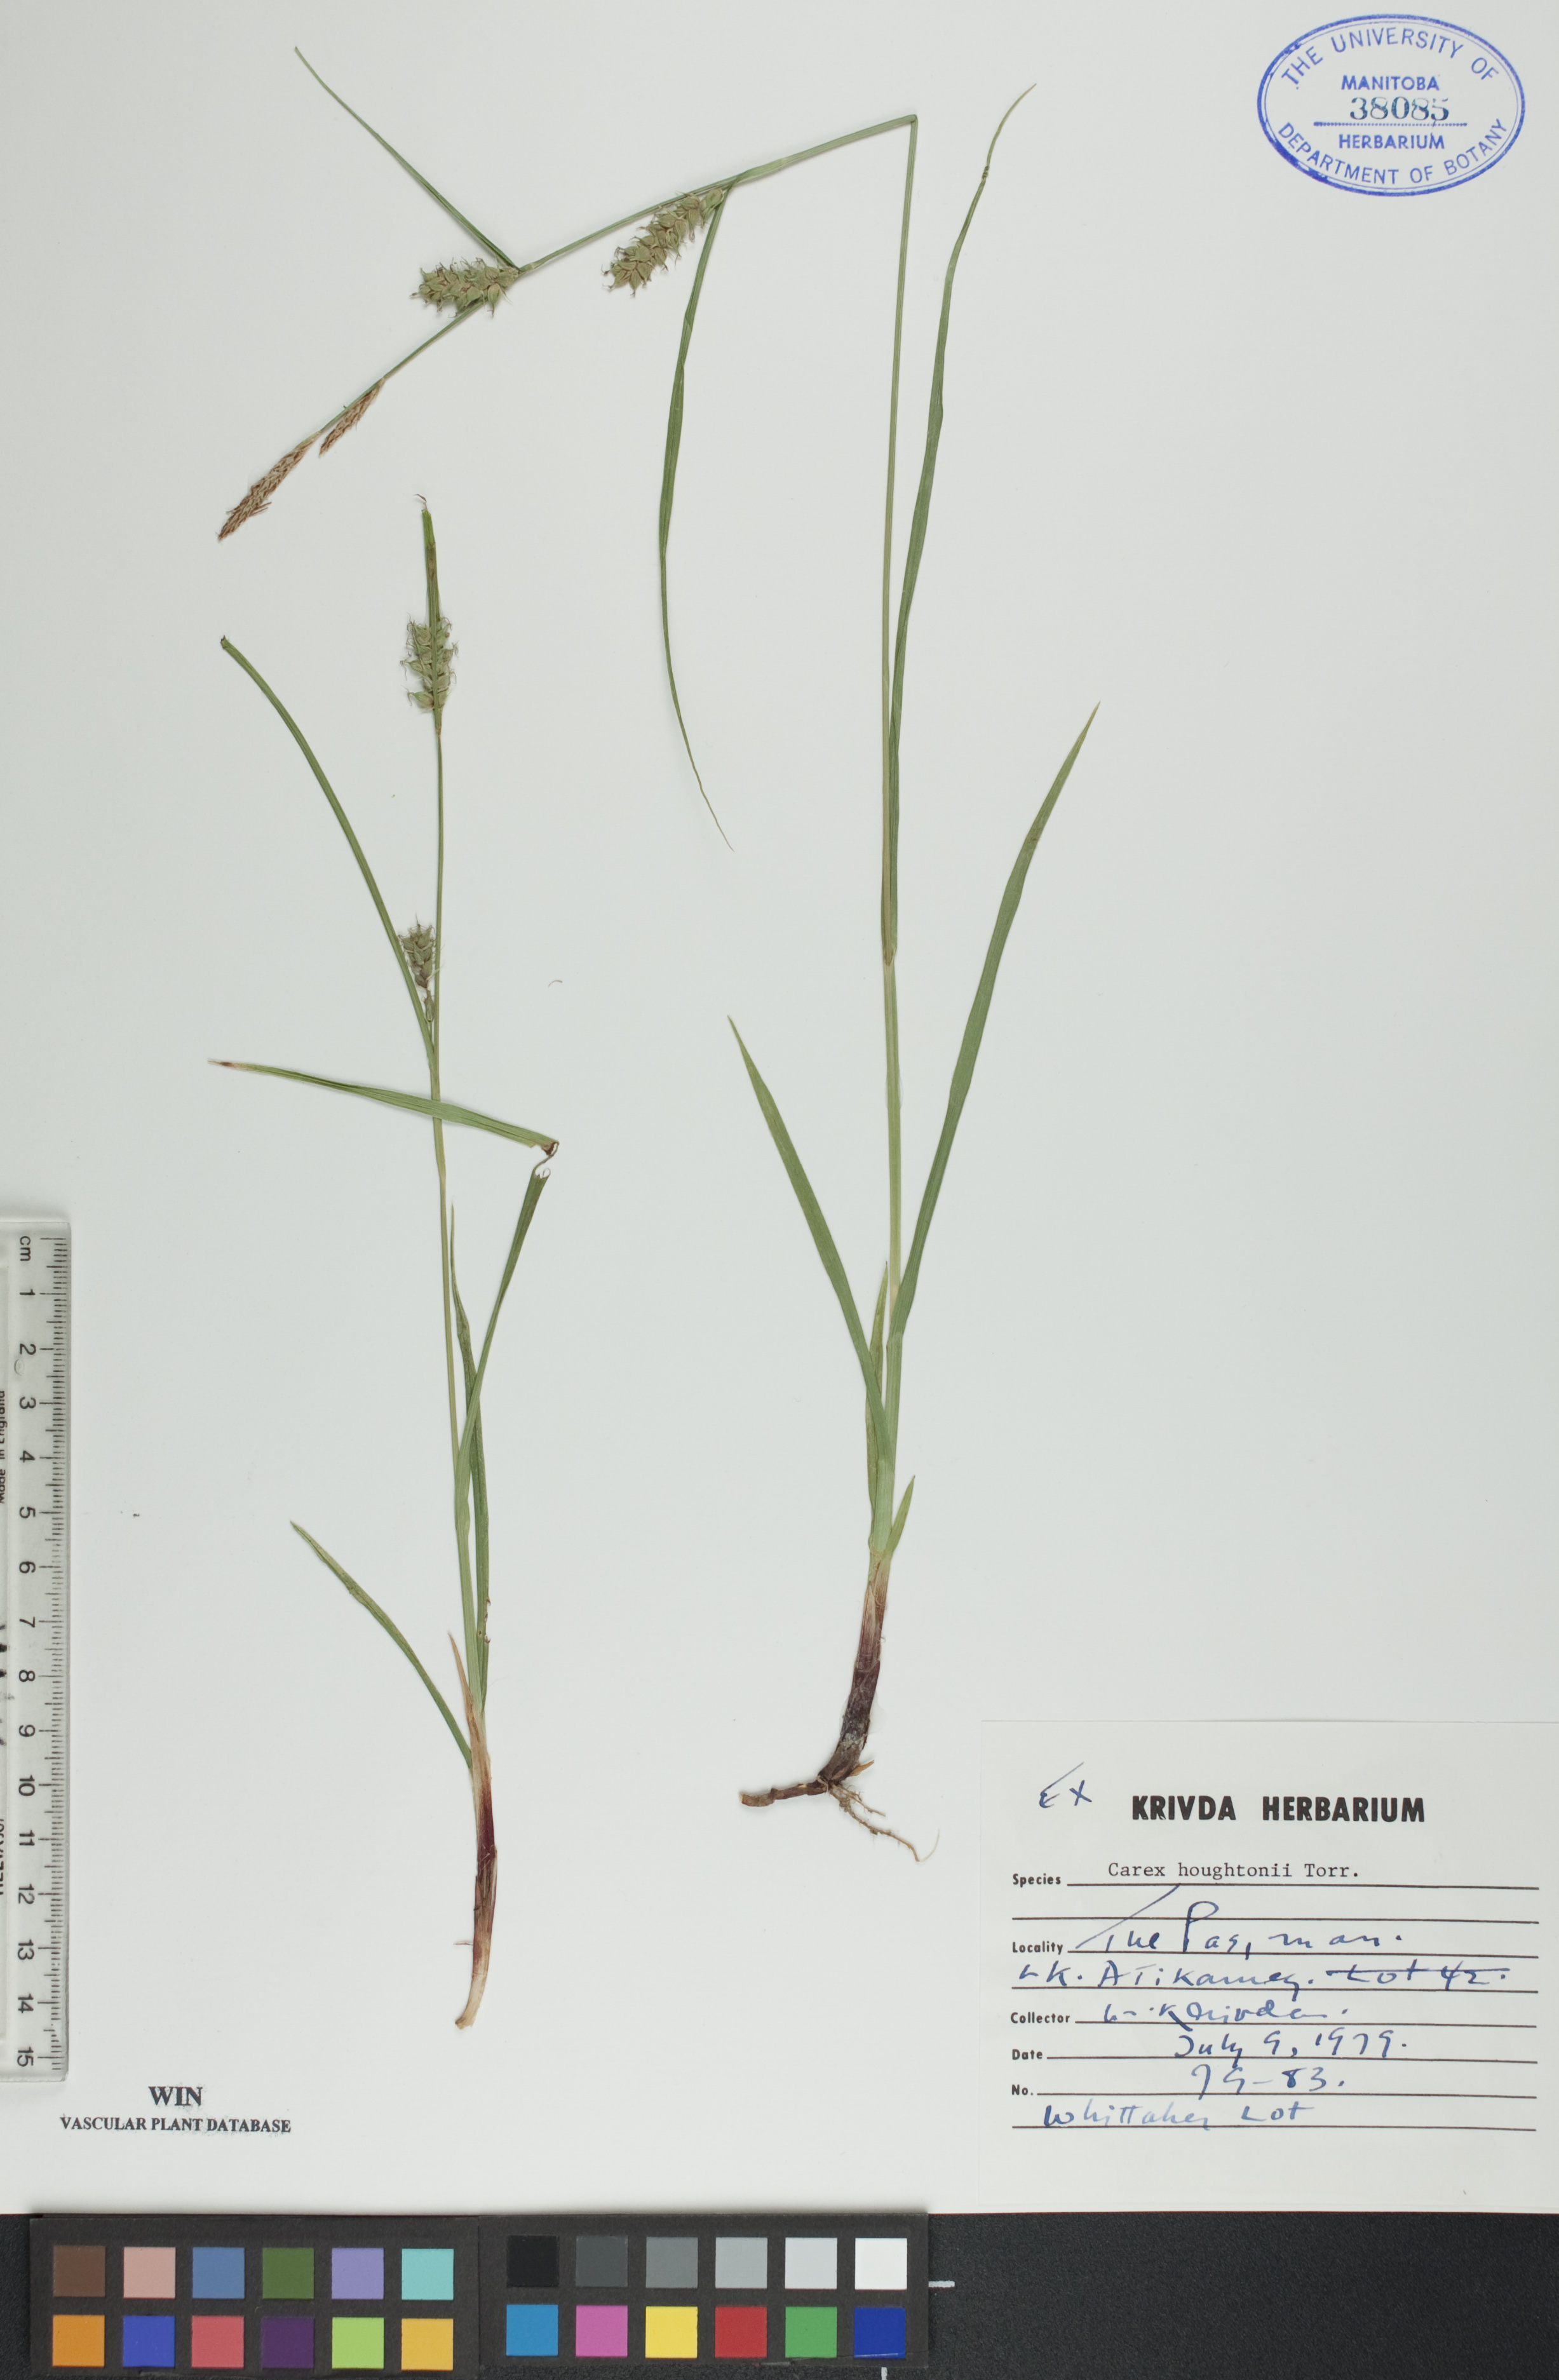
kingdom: Plantae
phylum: Tracheophyta
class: Liliopsida
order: Poales
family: Cyperaceae
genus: Carex
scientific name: Carex houghtoniana
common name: Houghton's sedge
